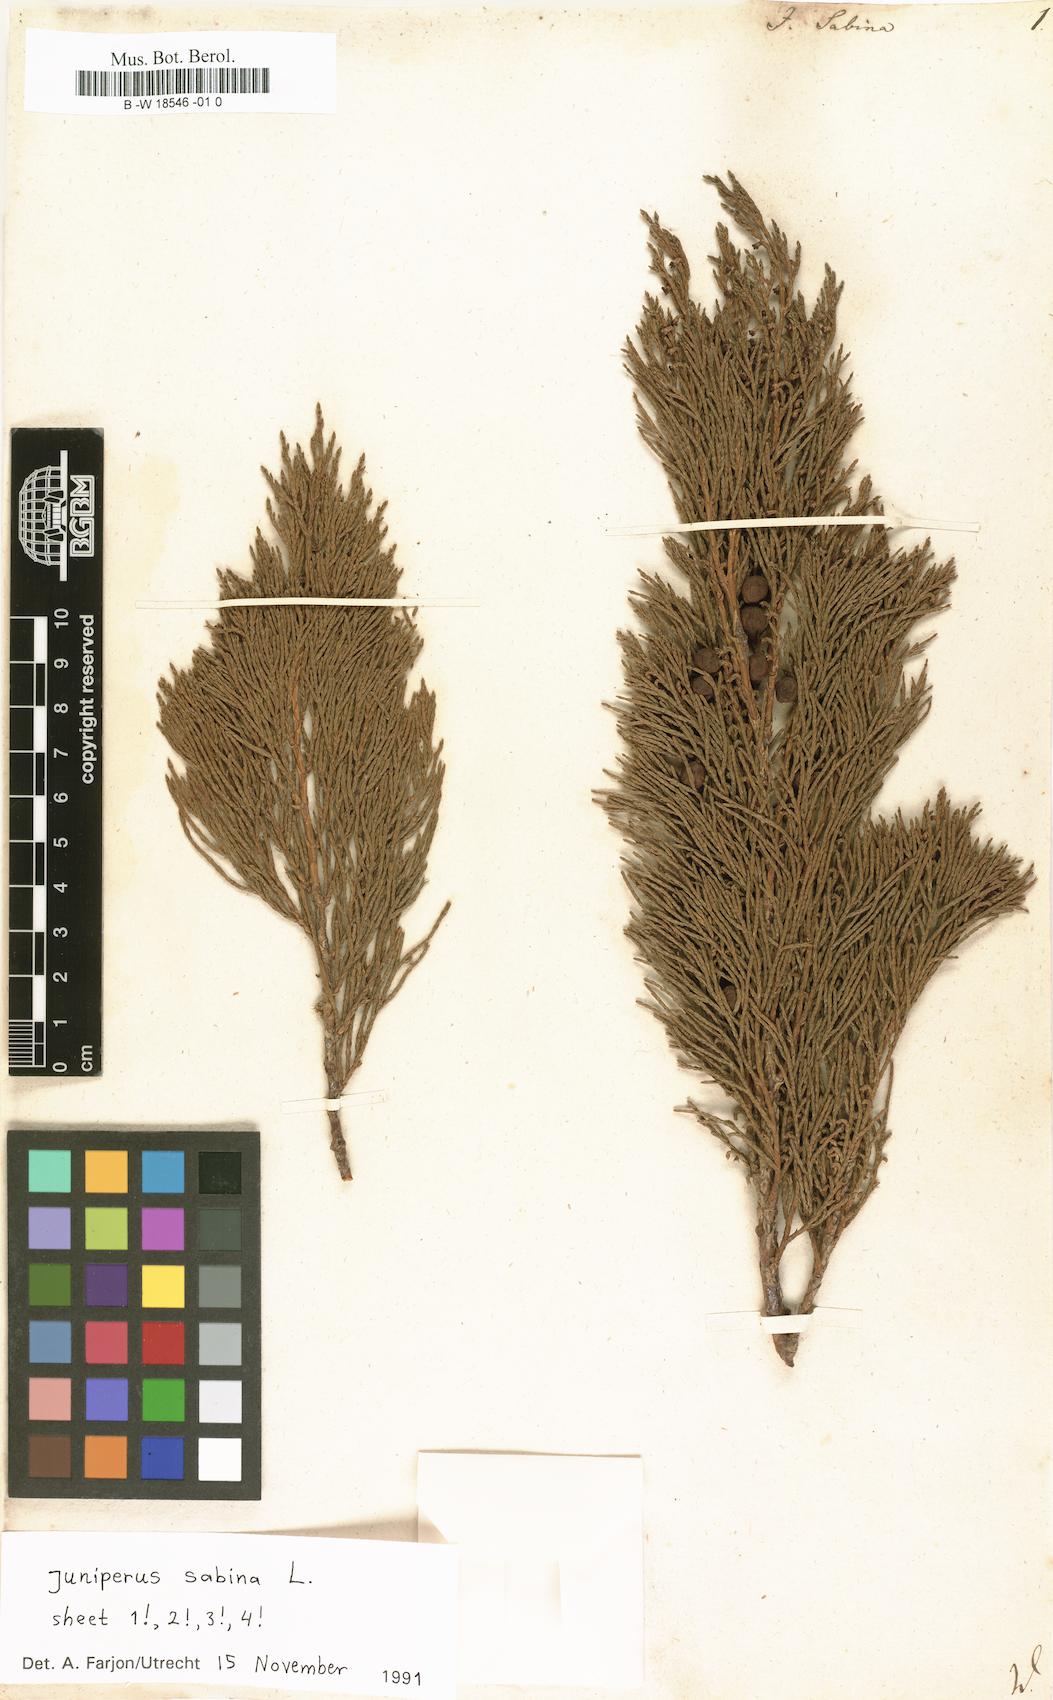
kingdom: Plantae
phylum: Tracheophyta
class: Pinopsida
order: Pinales
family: Cupressaceae
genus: Juniperus
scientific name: Juniperus sabina
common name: Savin
